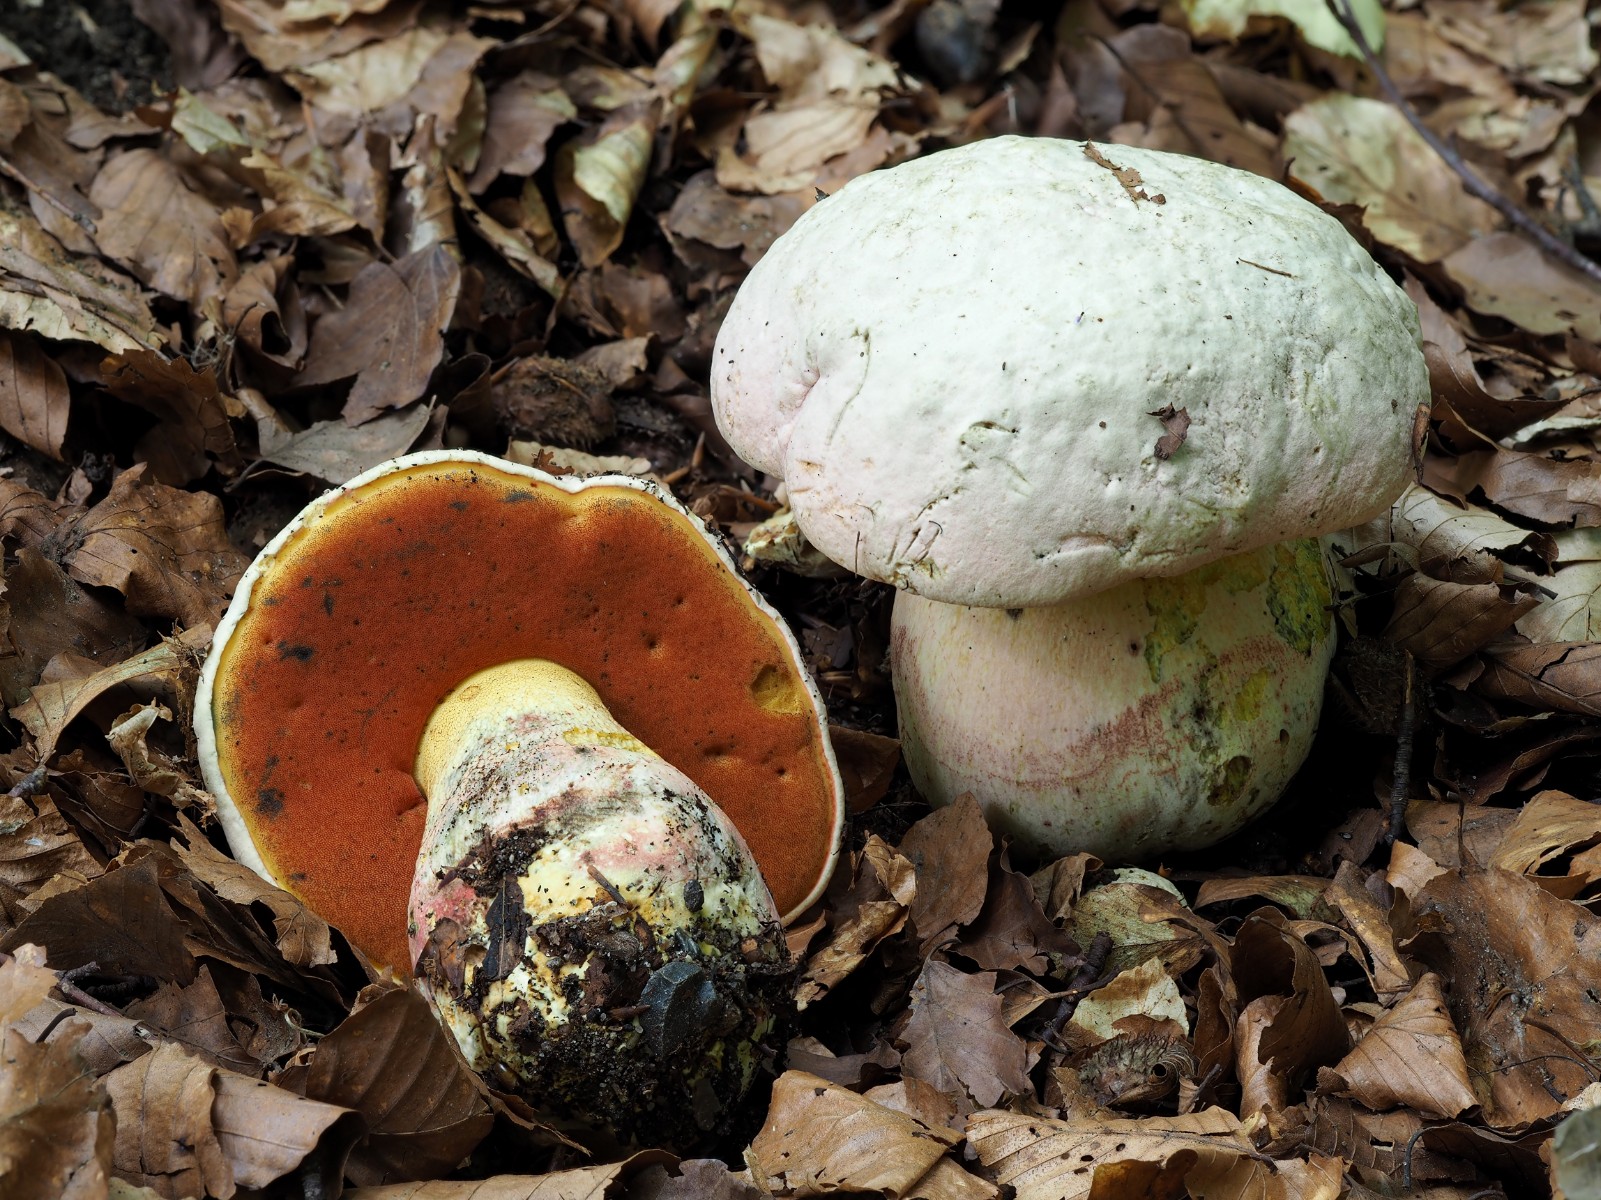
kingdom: Fungi
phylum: Basidiomycota
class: Agaricomycetes
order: Boletales
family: Boletaceae
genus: Rubroboletus
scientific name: Rubroboletus satanas
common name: Satans rørhat
